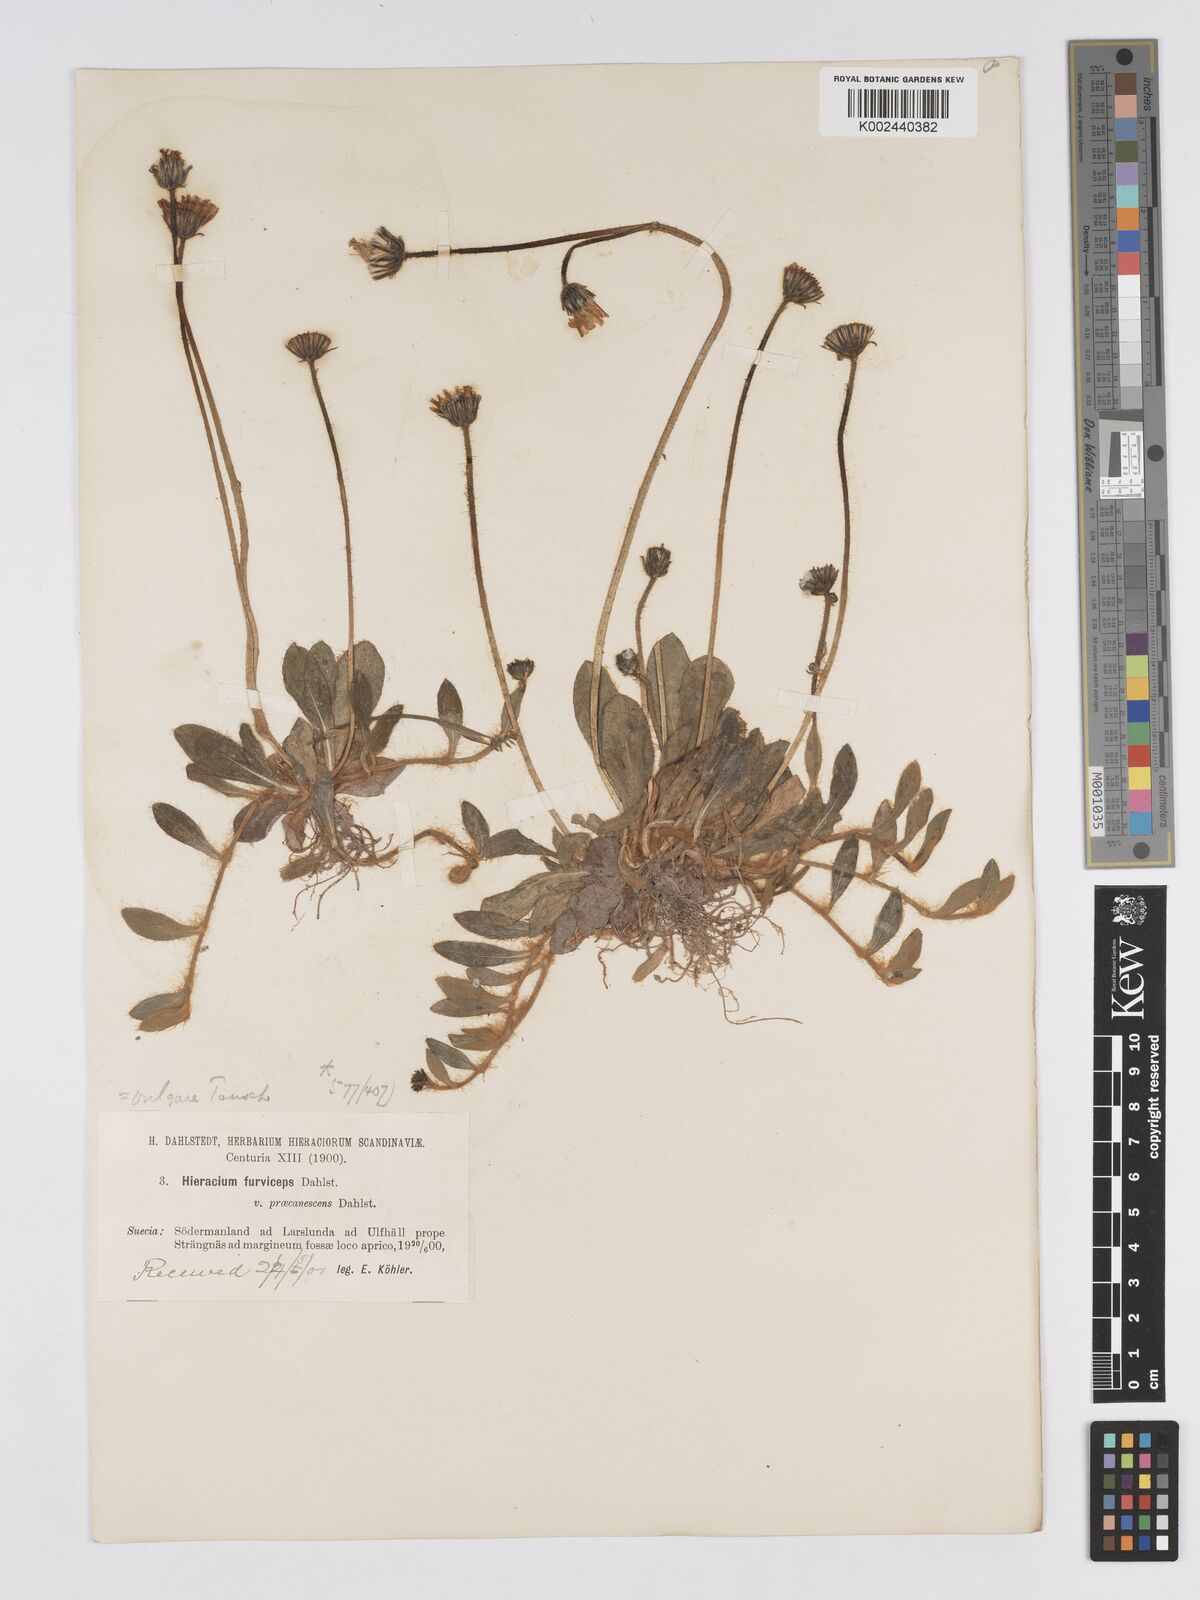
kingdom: Plantae
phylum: Tracheophyta
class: Magnoliopsida
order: Asterales
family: Asteraceae
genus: Pilosella
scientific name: Pilosella officinarum
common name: Mouse-ear hawkweed
